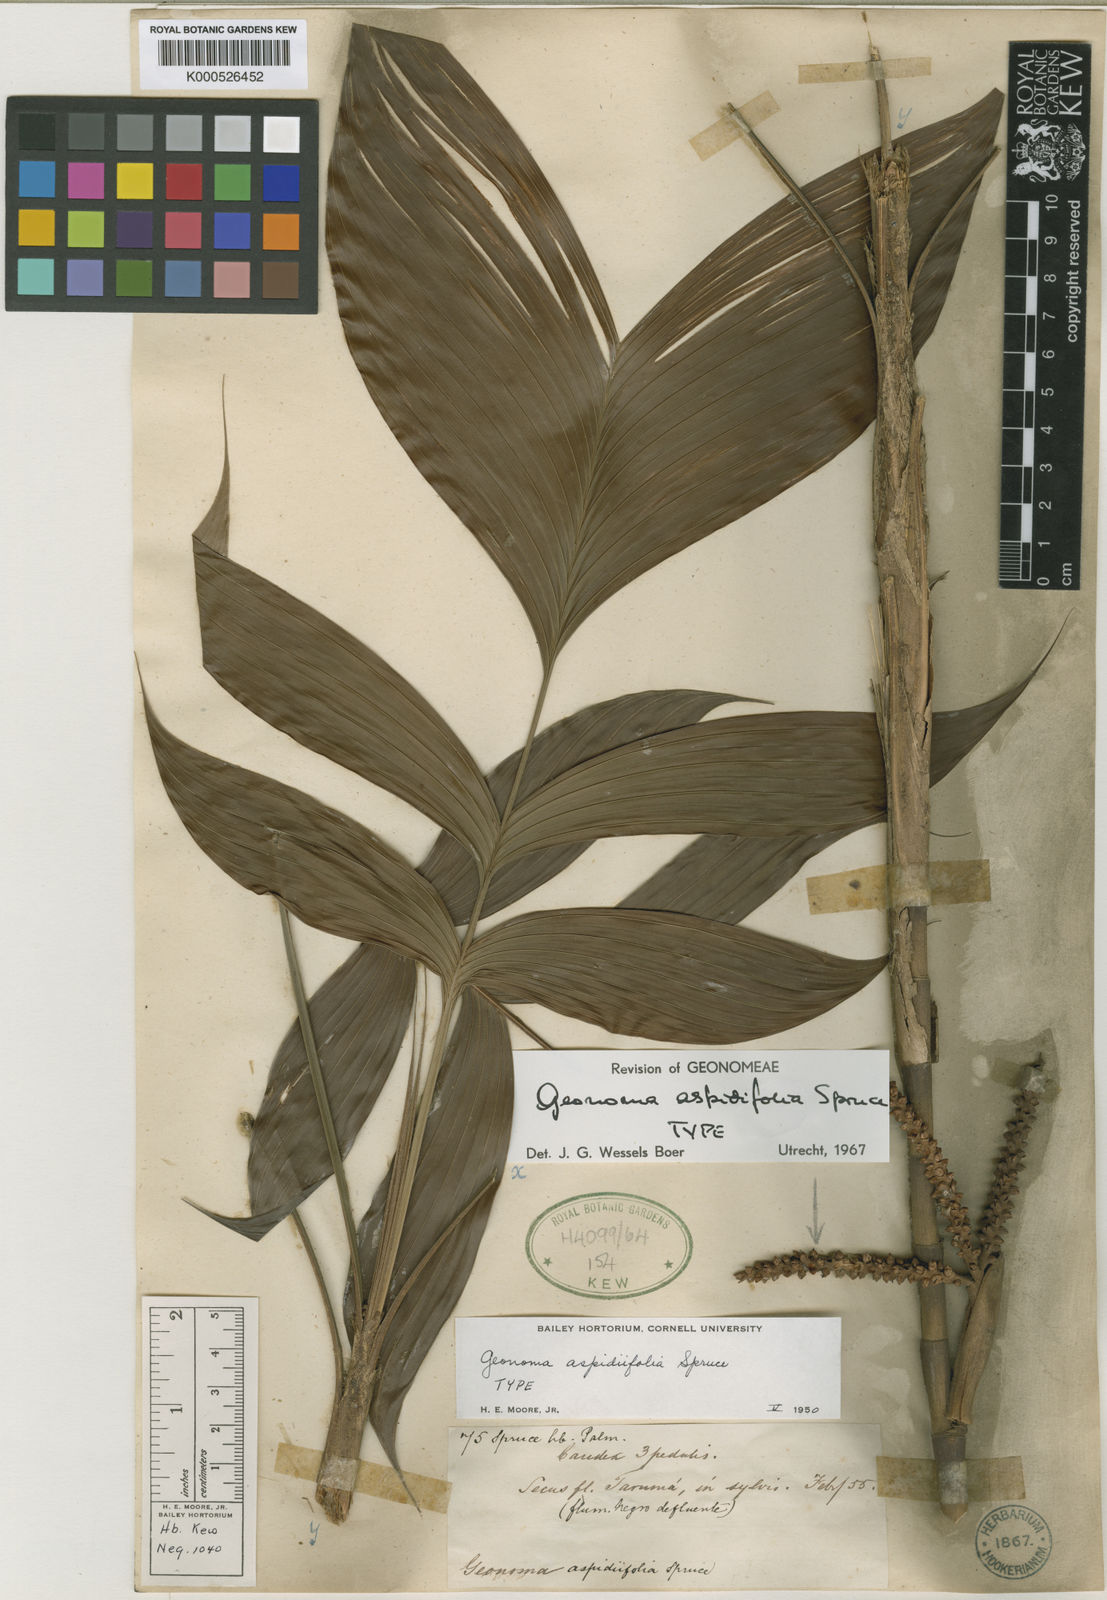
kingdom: Plantae
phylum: Tracheophyta
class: Liliopsida
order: Arecales
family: Arecaceae
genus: Geonoma
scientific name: Geonoma aspidiifolia
